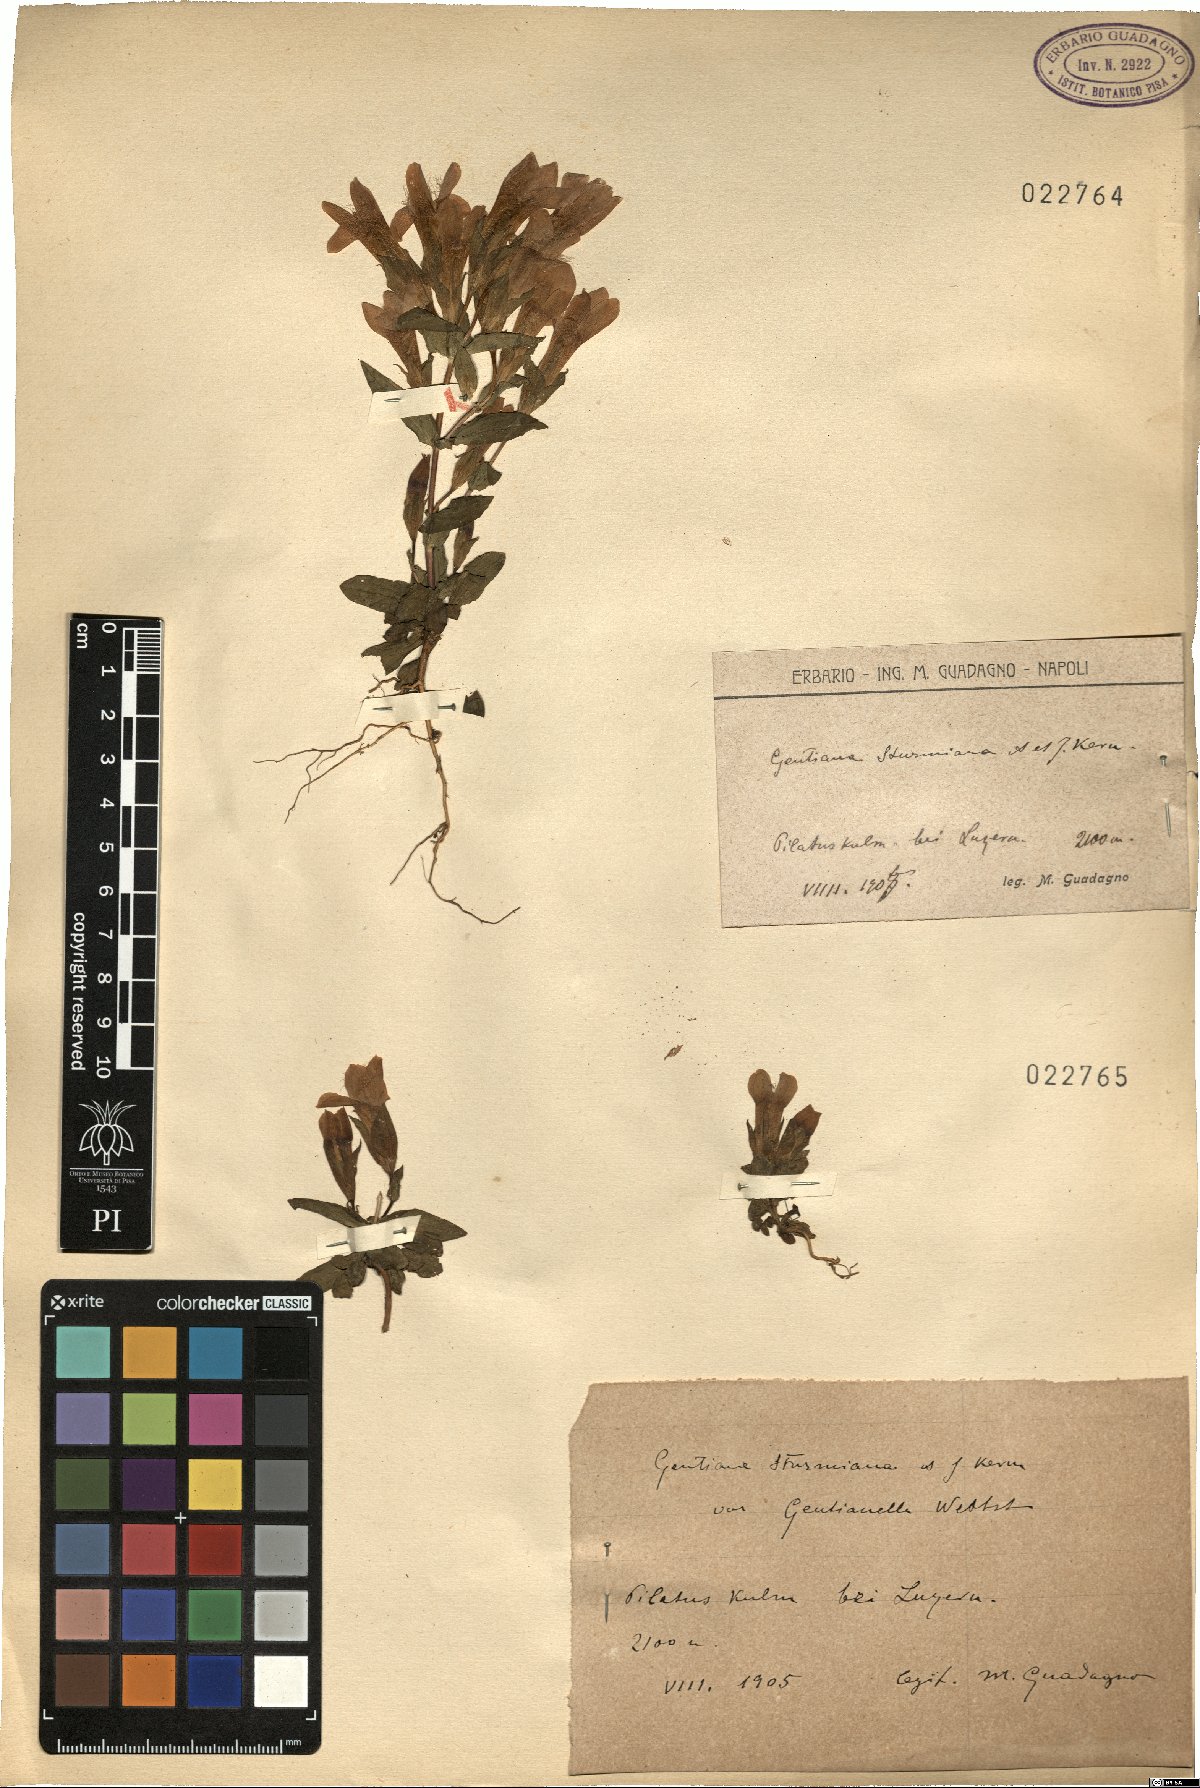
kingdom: Plantae
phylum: Tracheophyta
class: Magnoliopsida
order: Gentianales
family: Gentianaceae
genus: Gentianella
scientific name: Gentianella obtusifolia
